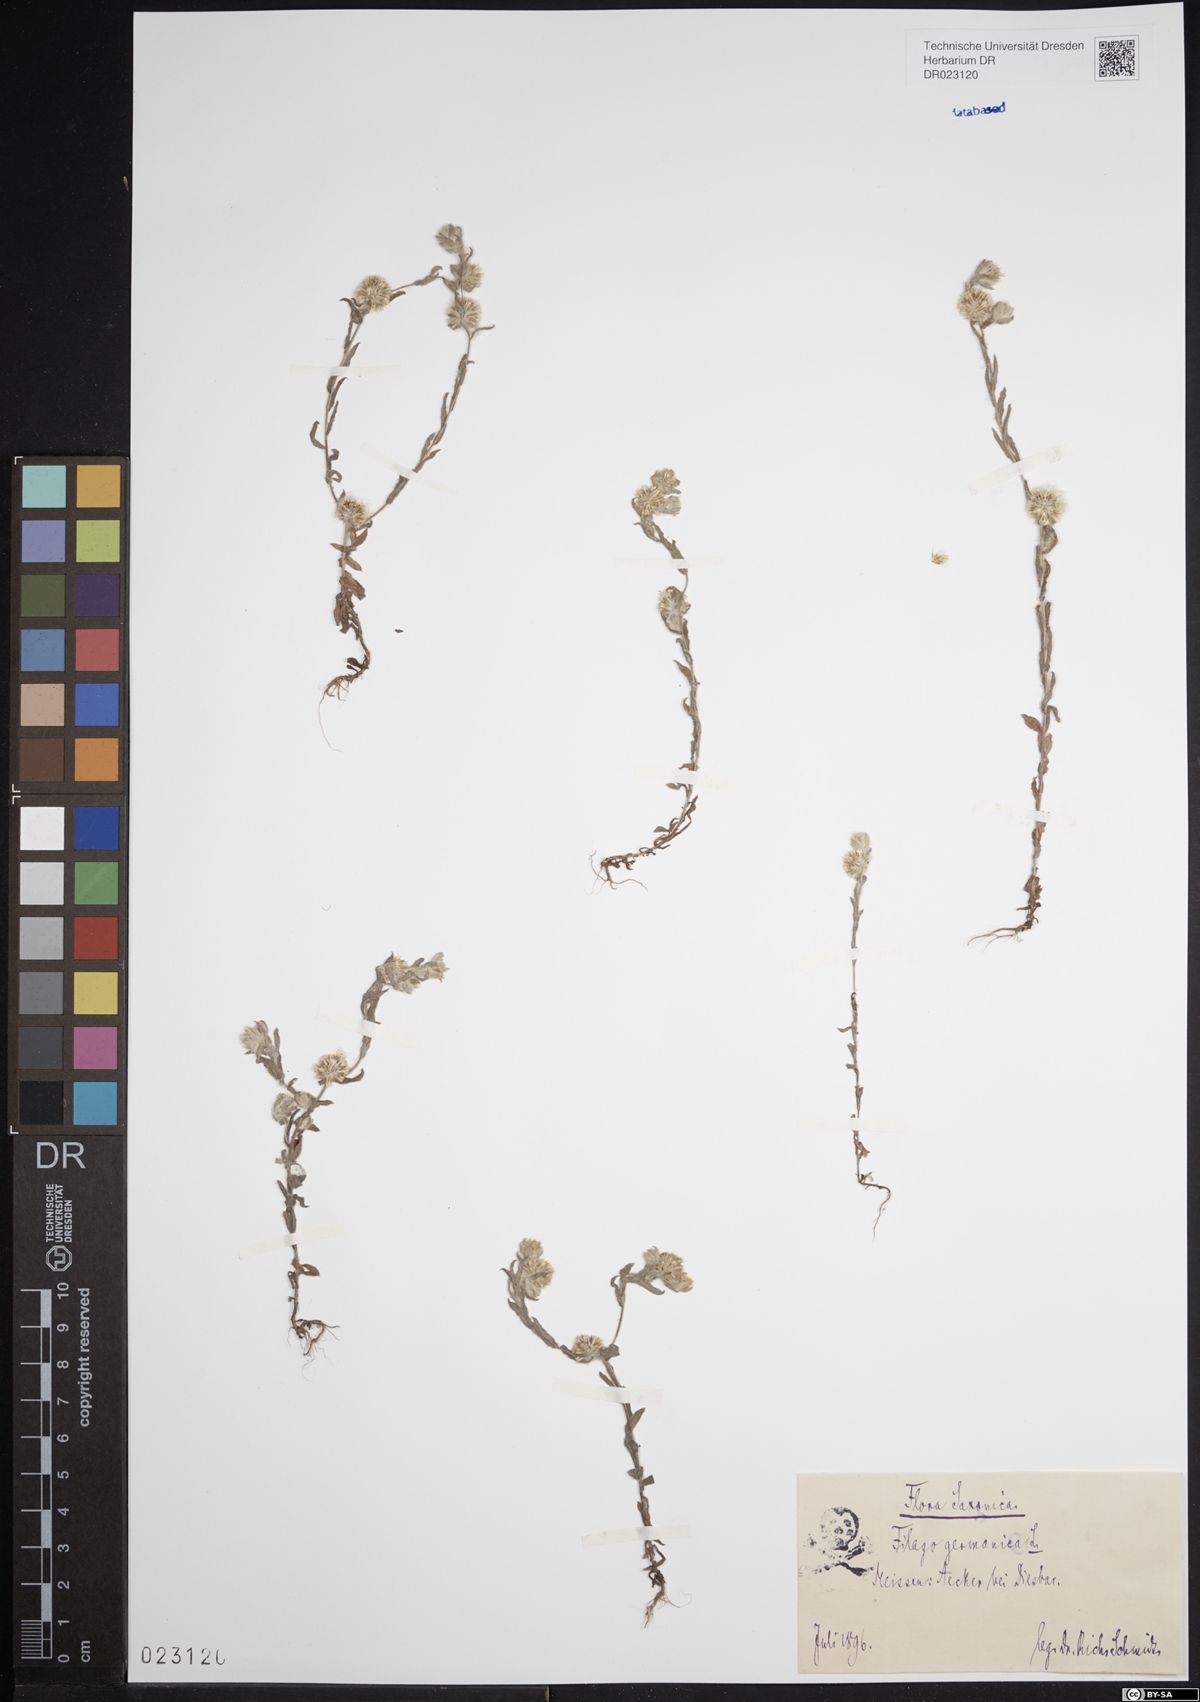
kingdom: Plantae
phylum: Tracheophyta
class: Magnoliopsida
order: Asterales
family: Asteraceae
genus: Filago
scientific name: Filago germanica
